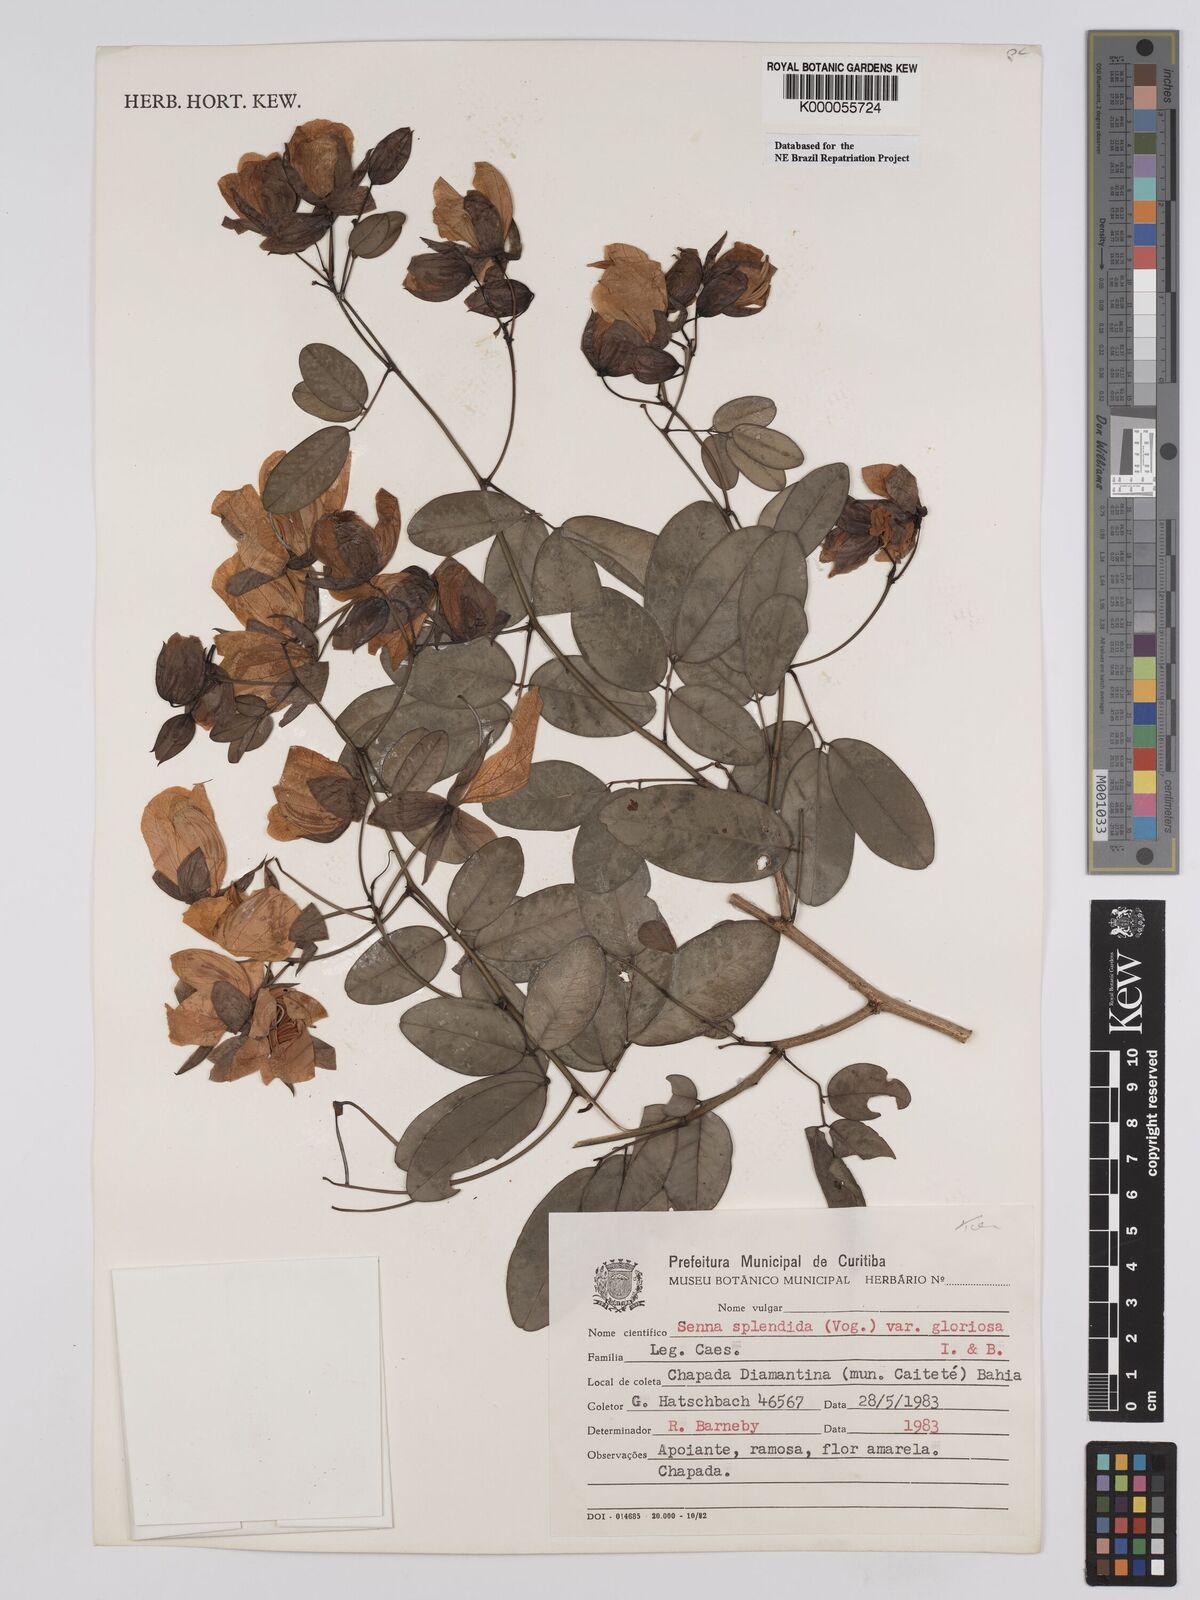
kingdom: Plantae
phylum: Tracheophyta
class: Magnoliopsida
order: Fabales
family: Fabaceae
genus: Senna
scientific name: Senna splendida
